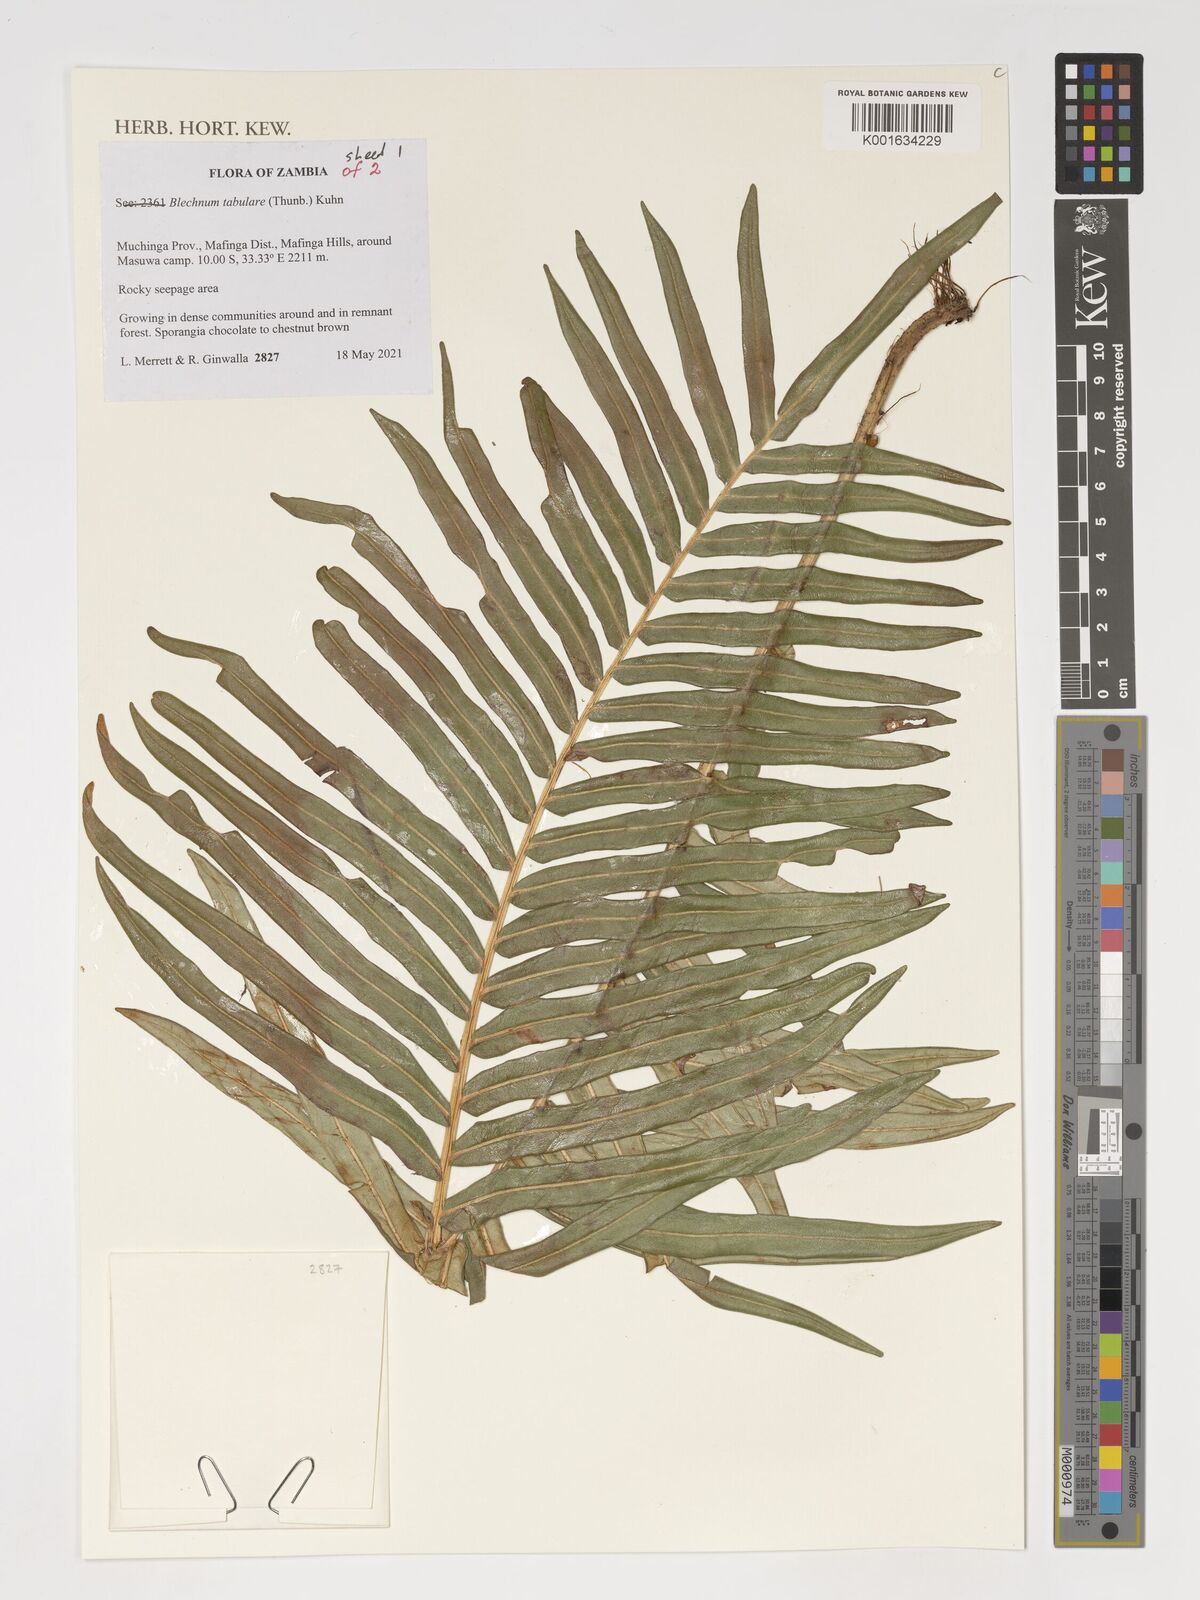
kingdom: Plantae
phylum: Tracheophyta
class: Polypodiopsida
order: Polypodiales
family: Blechnaceae
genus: Lomariocycas
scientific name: Lomariocycas tabularis
